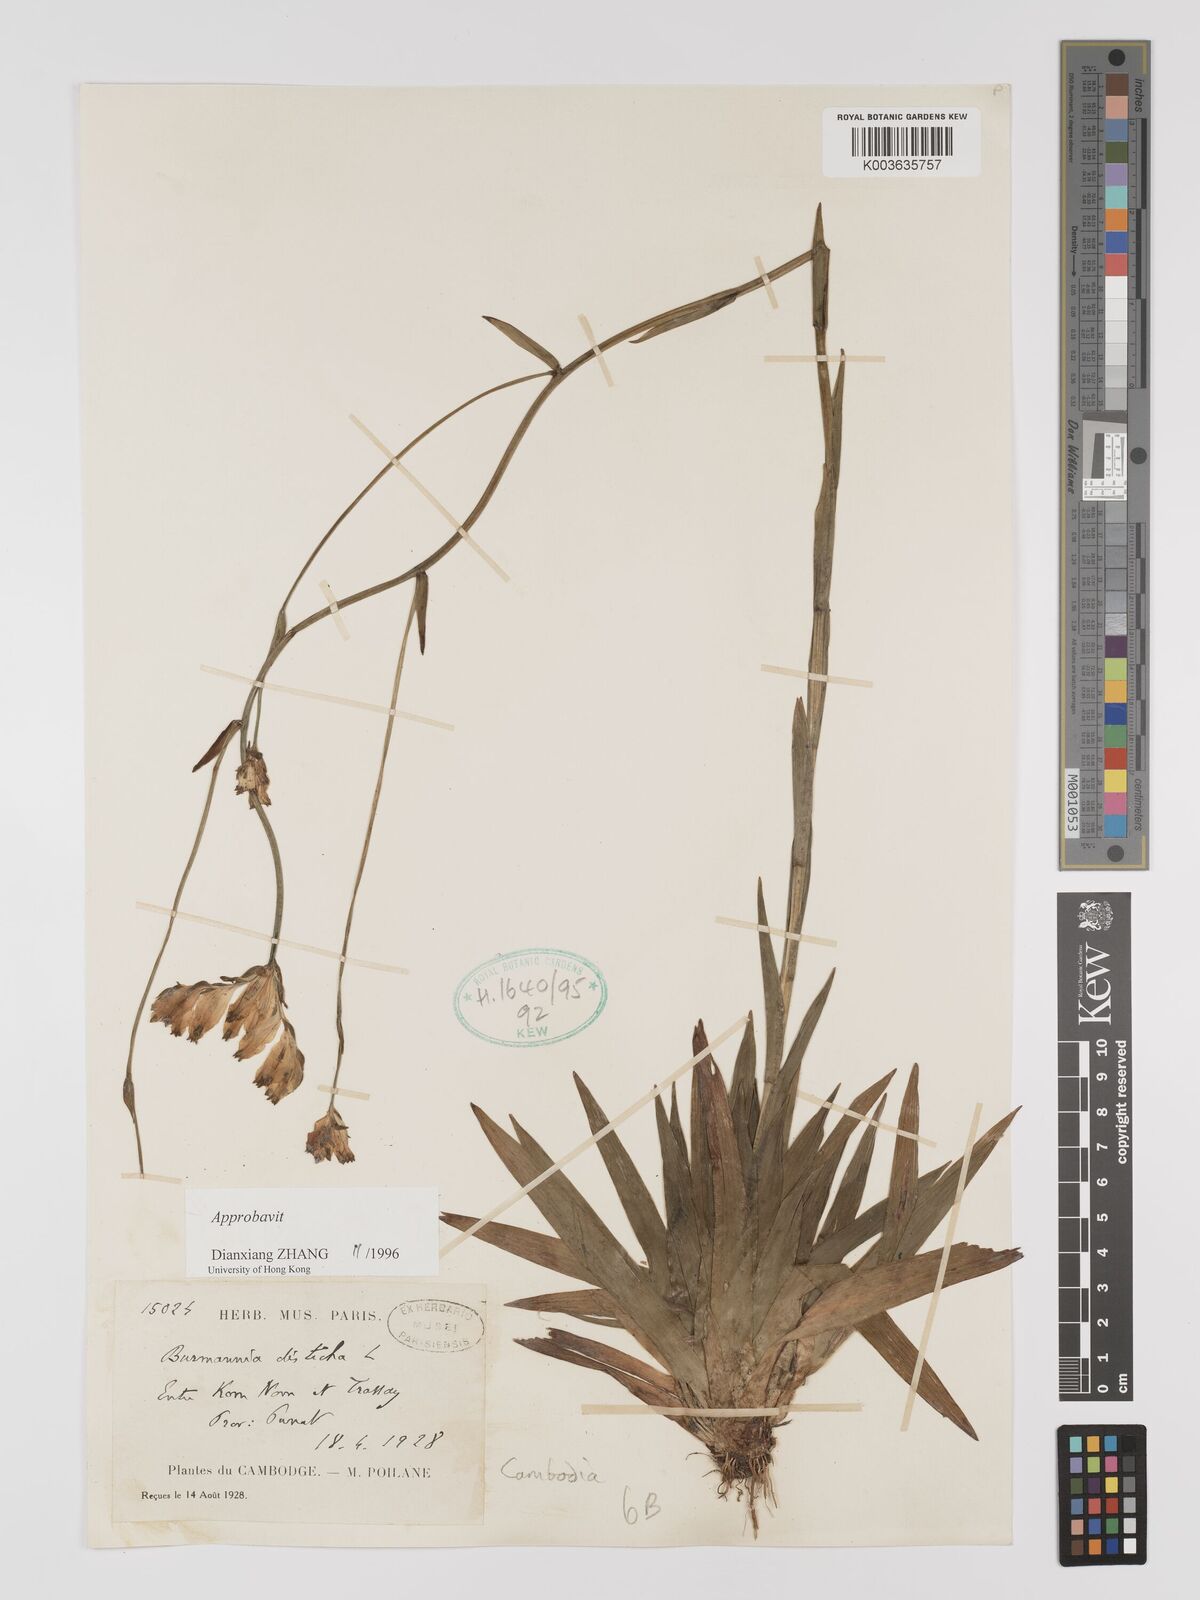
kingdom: Plantae
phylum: Tracheophyta
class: Liliopsida
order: Dioscoreales
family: Burmanniaceae
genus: Burmannia
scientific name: Burmannia disticha
